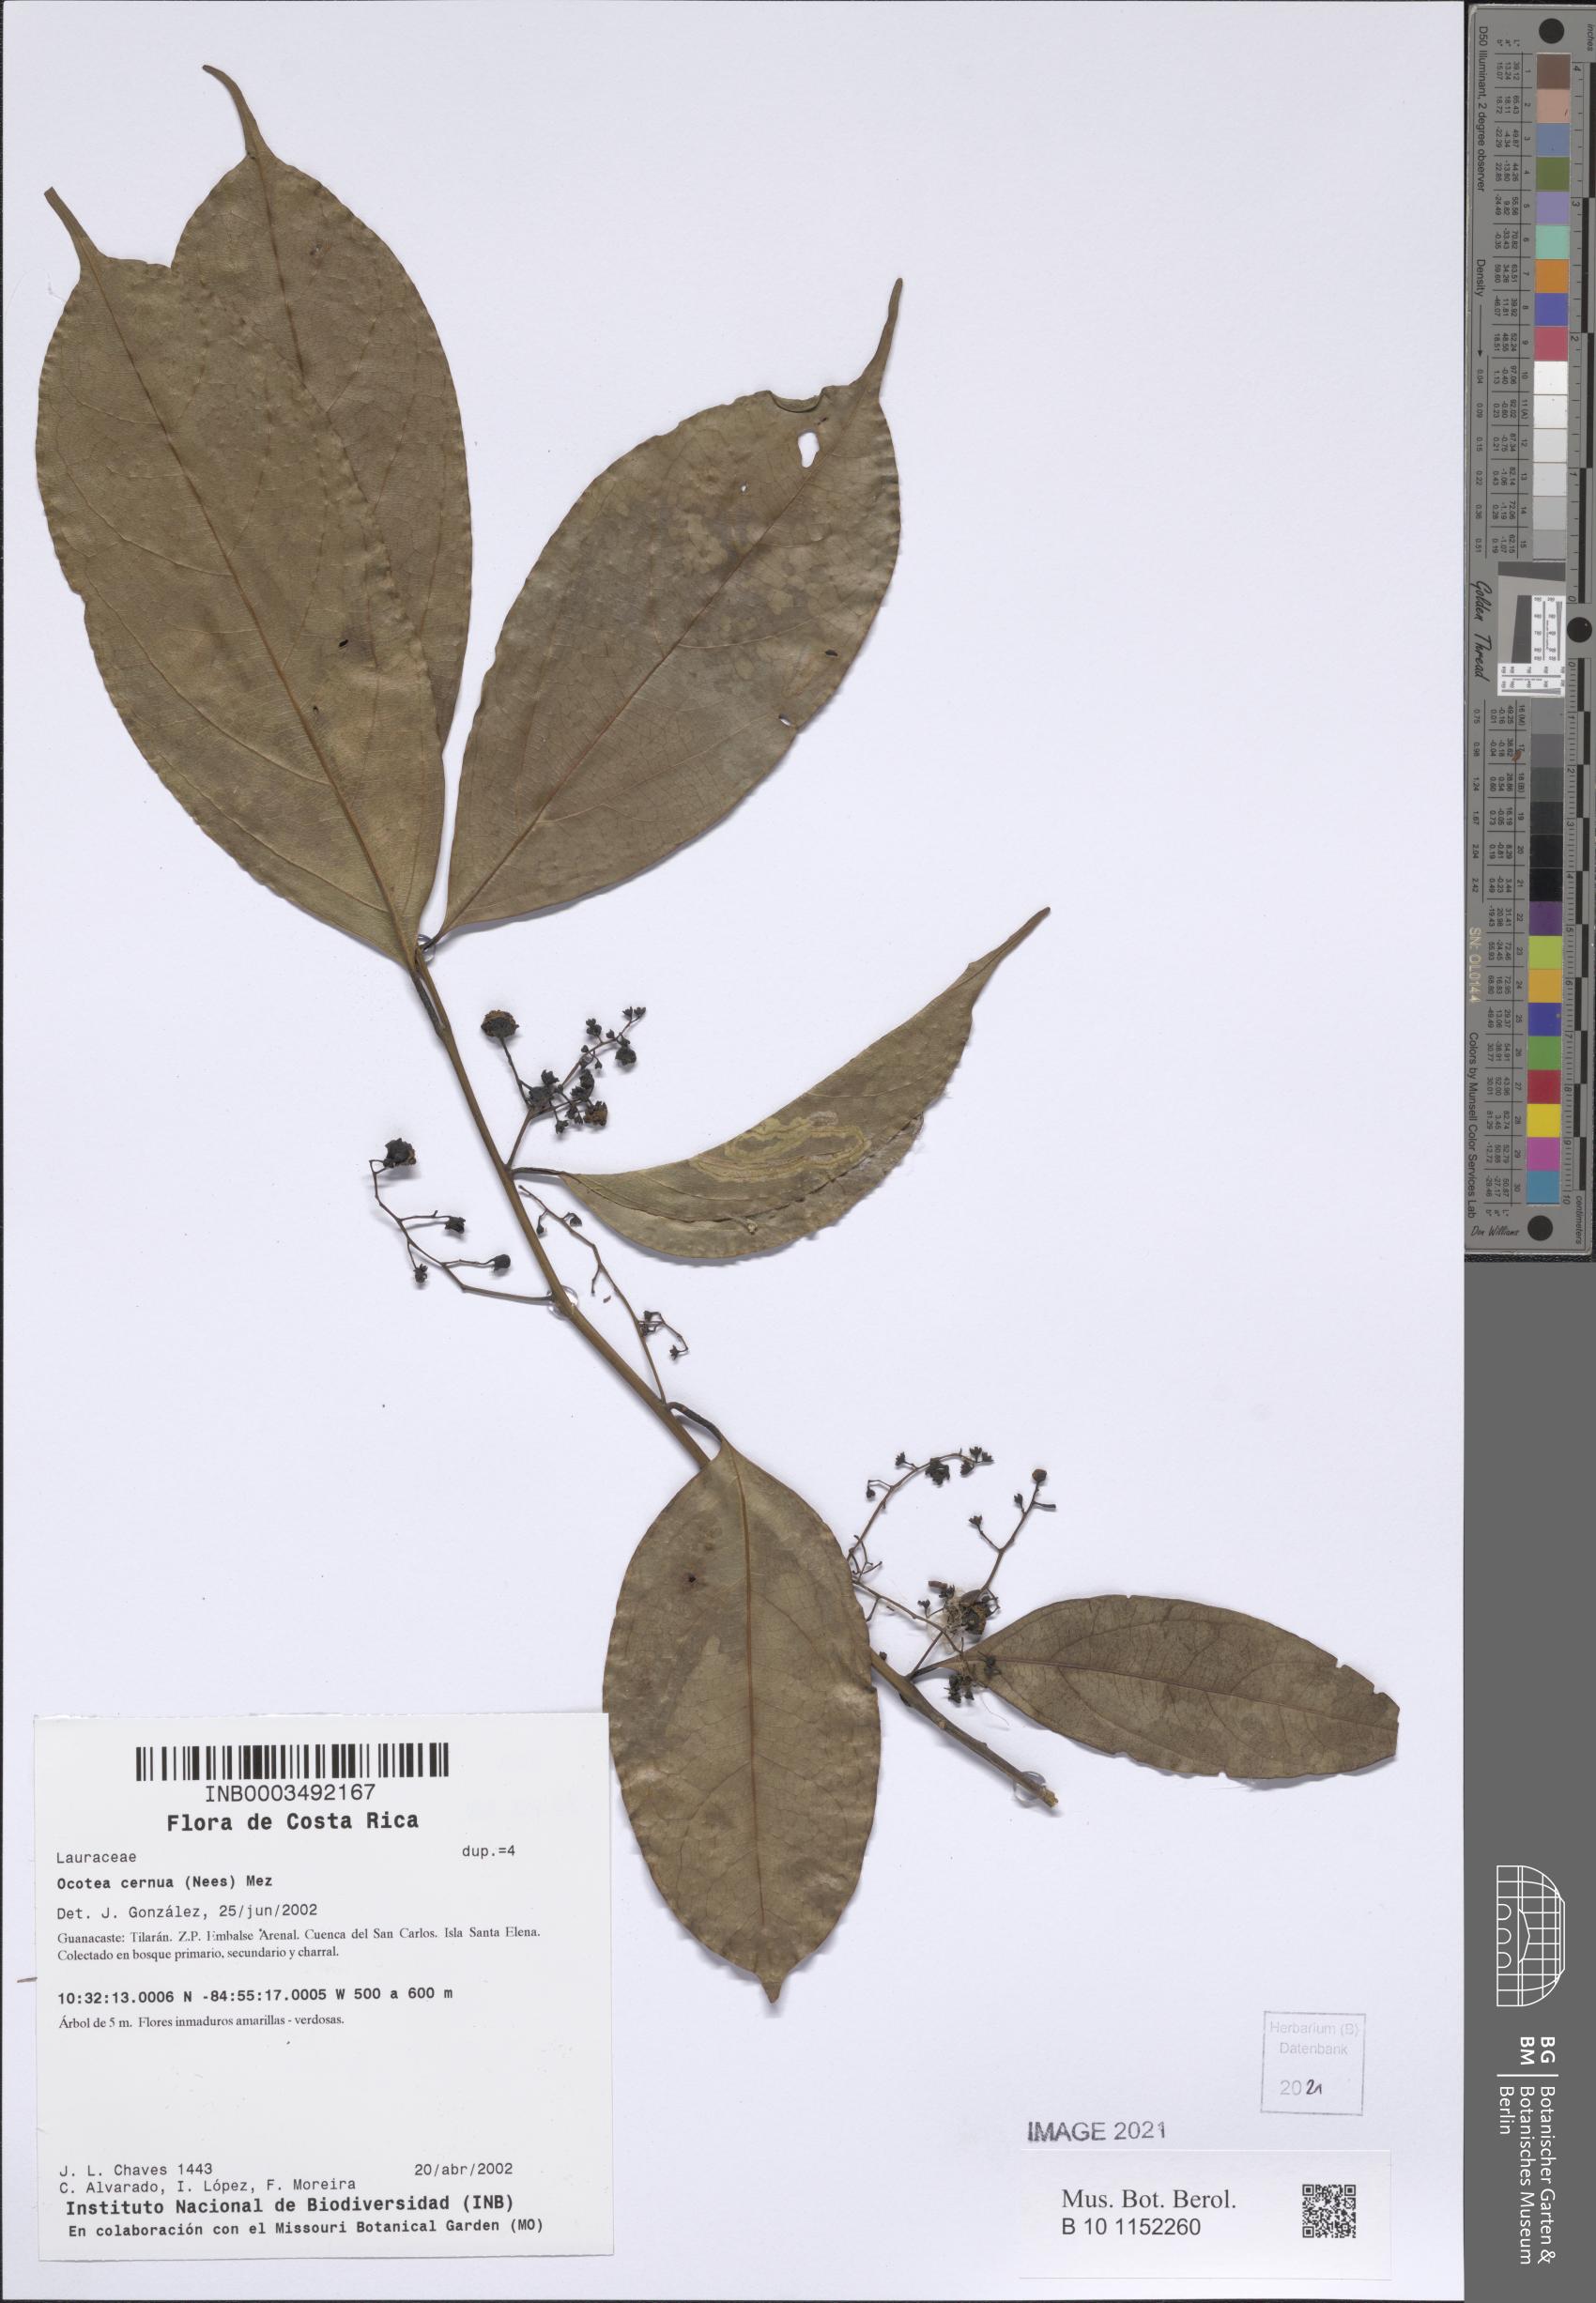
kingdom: Plantae
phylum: Tracheophyta
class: Magnoliopsida
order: Laurales
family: Lauraceae
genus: Ocotea
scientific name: Ocotea leptobotra
